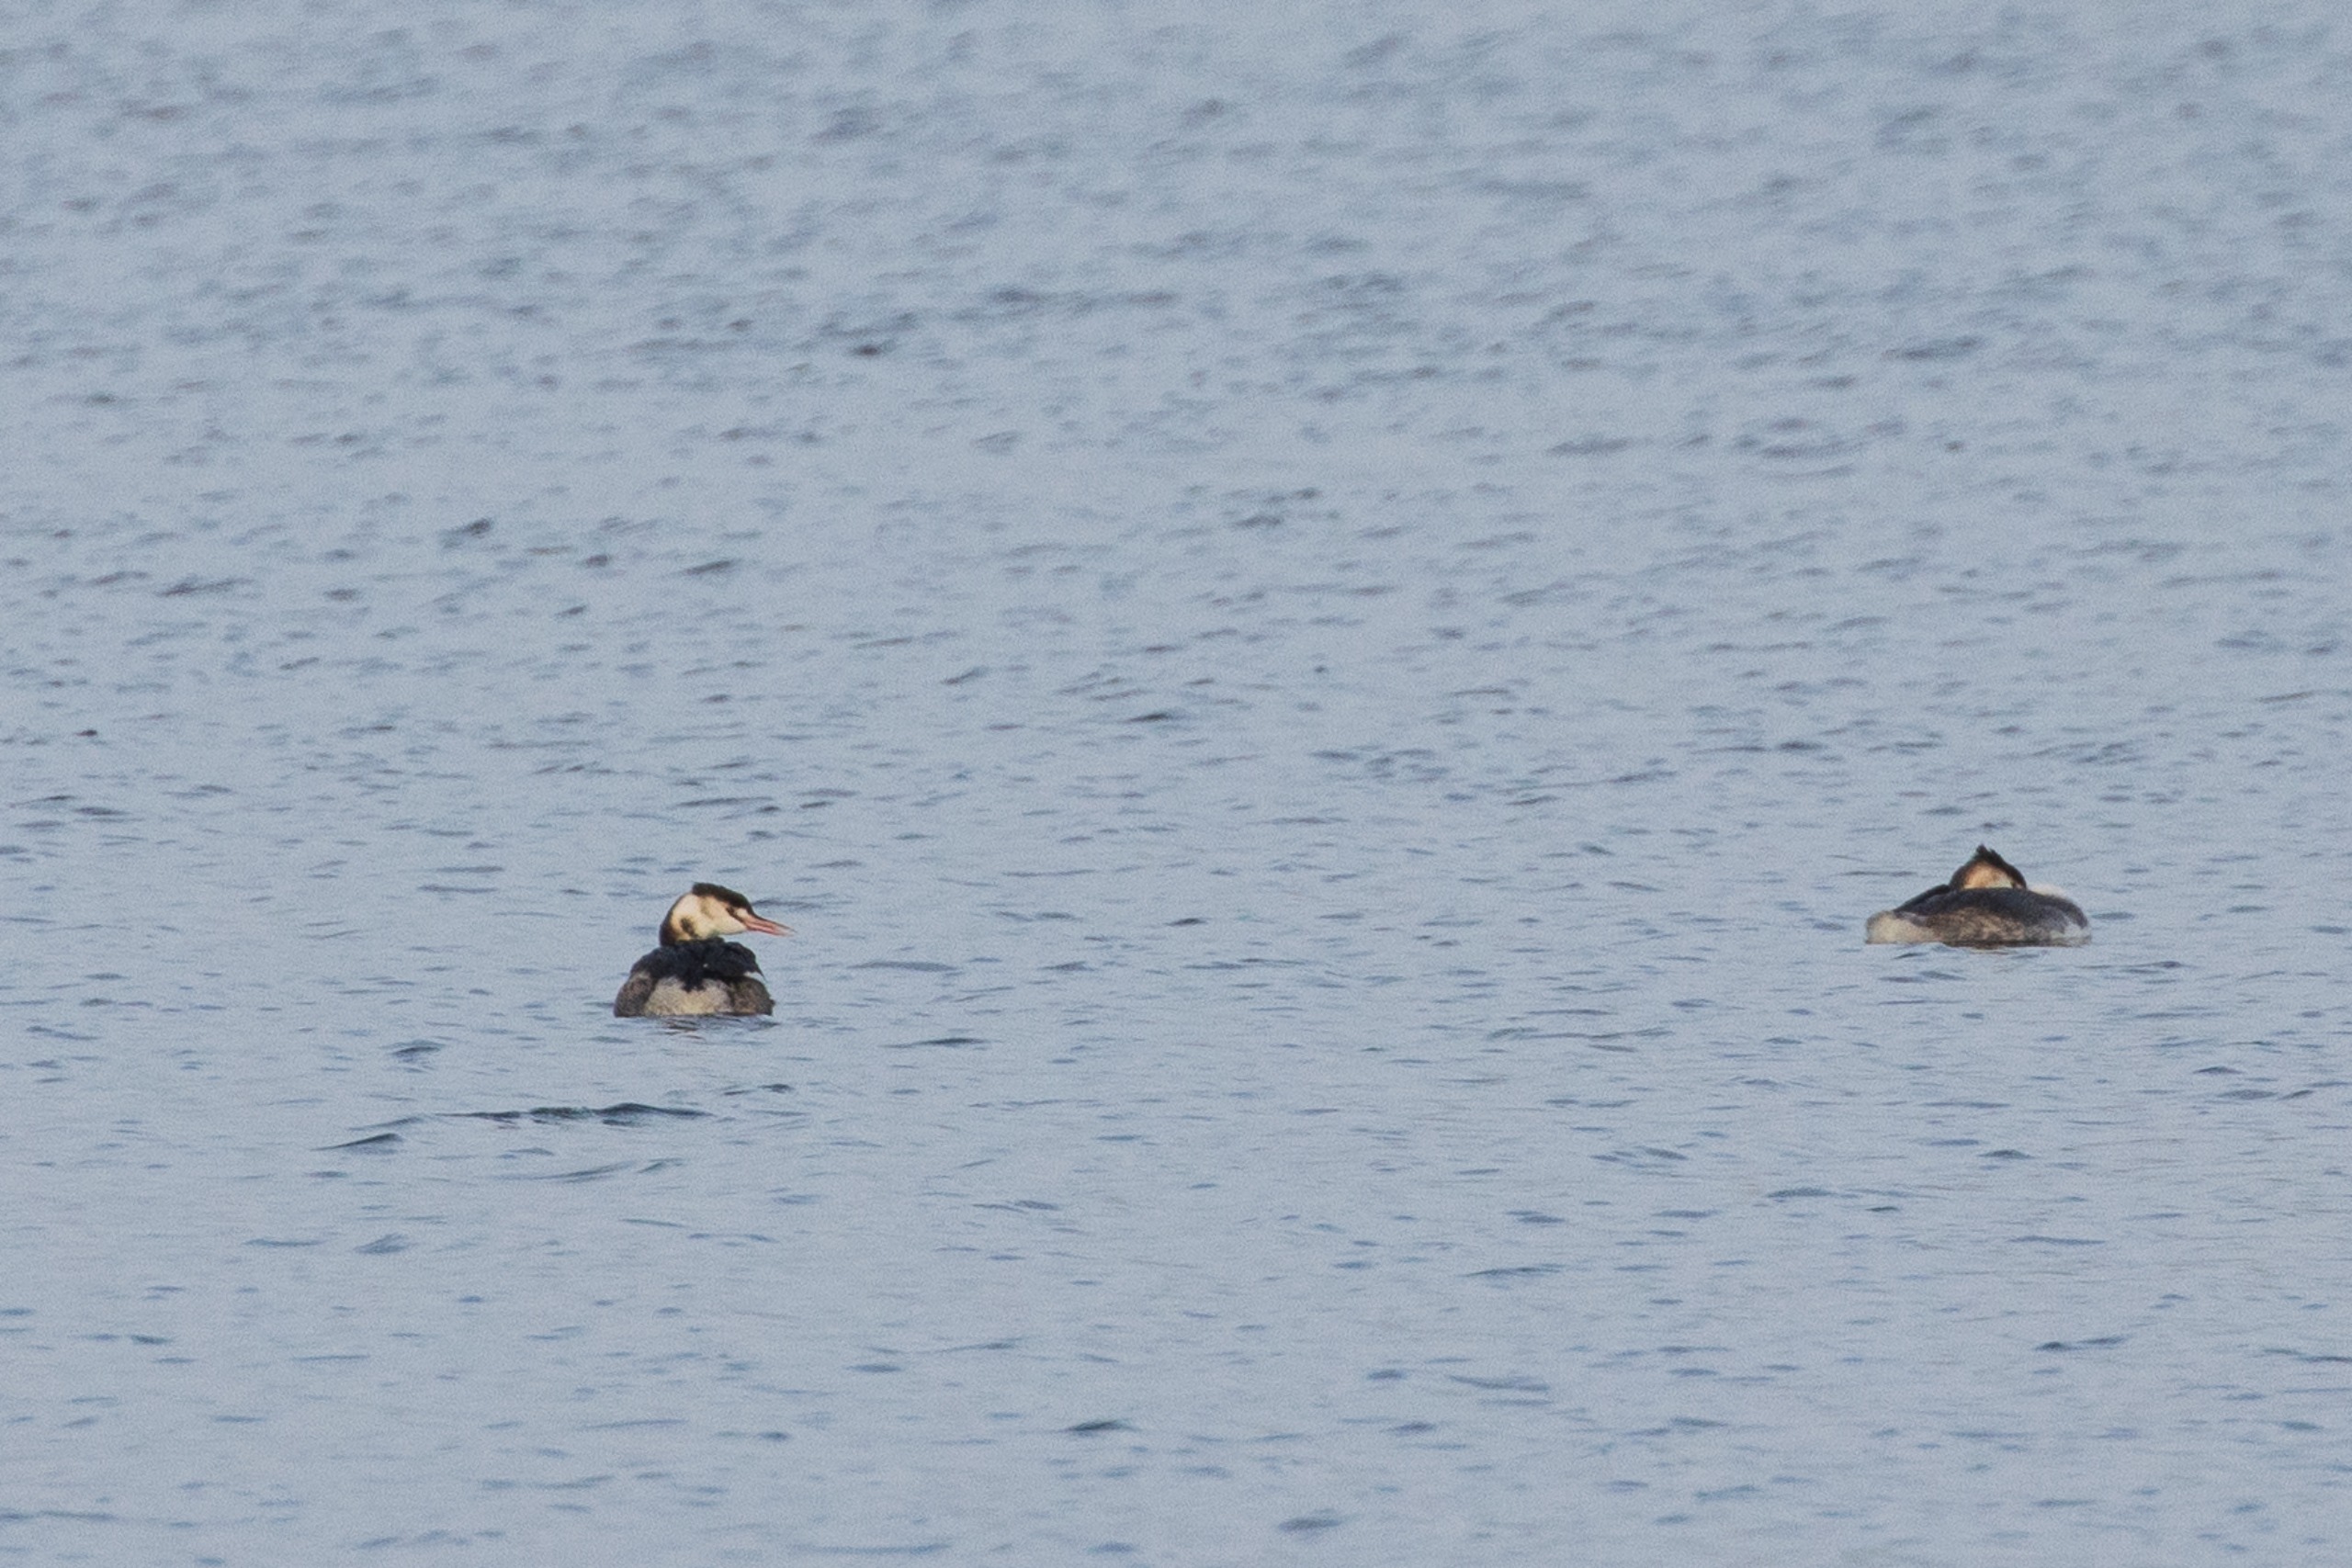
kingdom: Animalia
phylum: Chordata
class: Aves
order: Podicipediformes
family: Podicipedidae
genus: Podiceps
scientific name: Podiceps cristatus
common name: Toppet lappedykker
